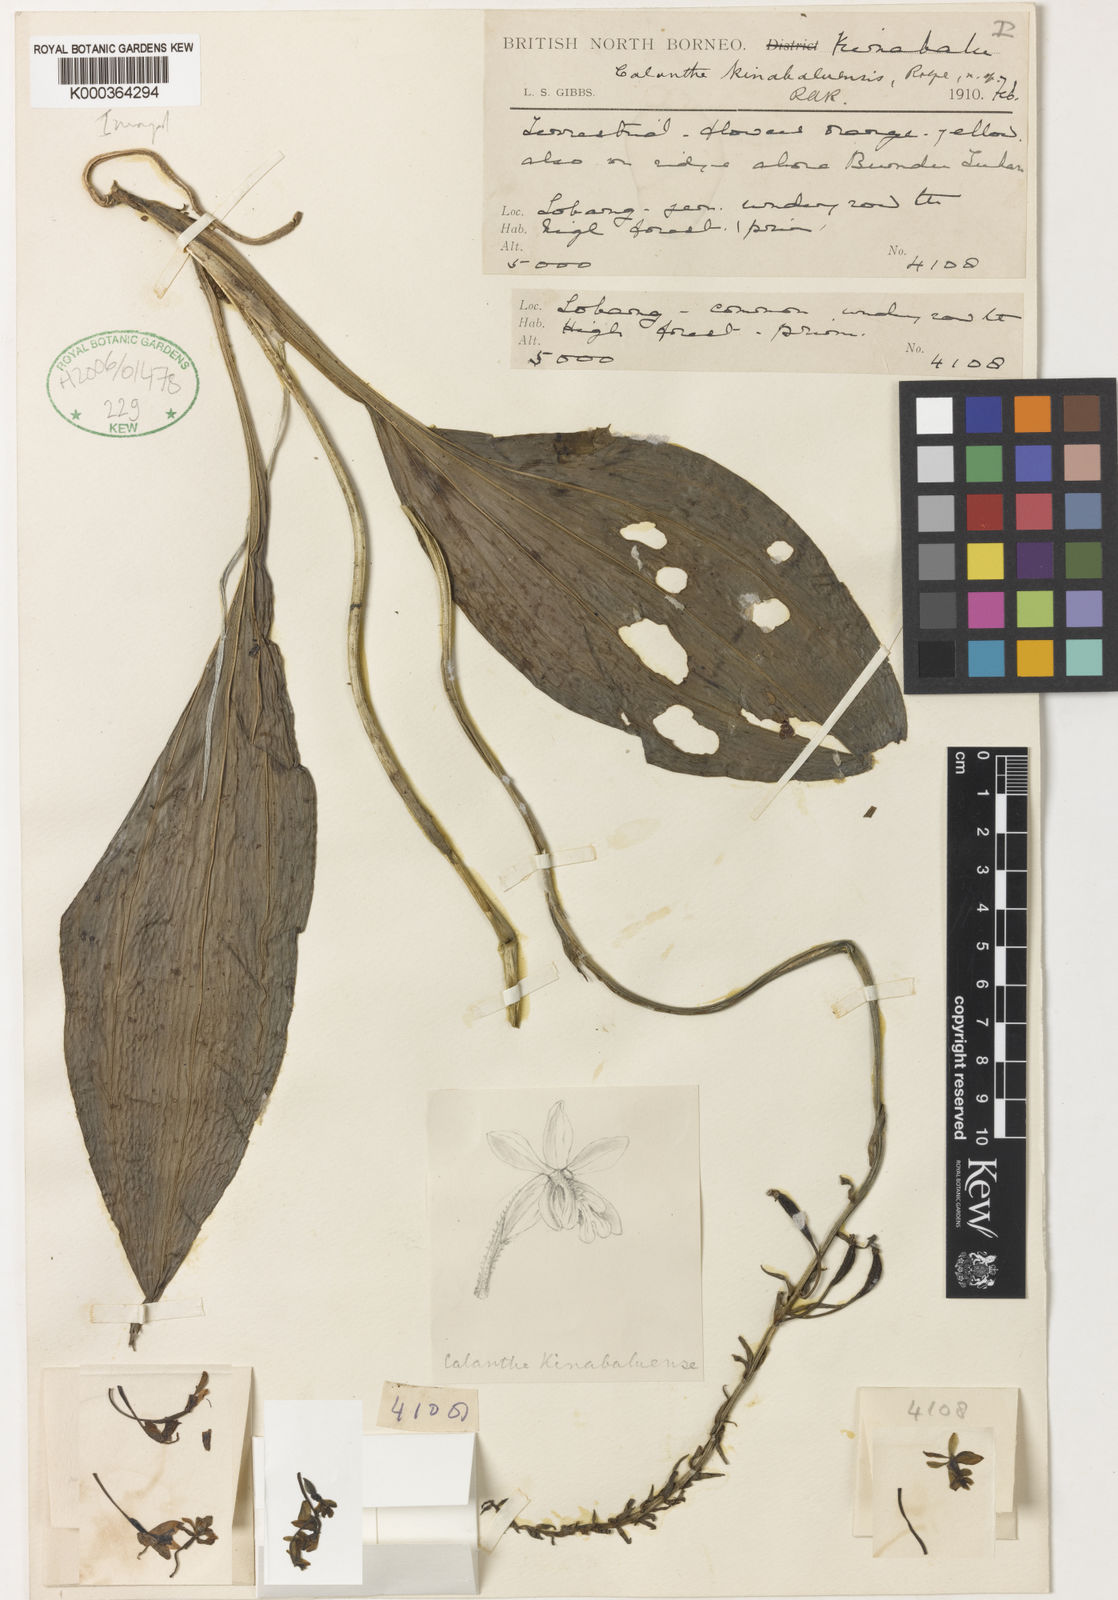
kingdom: Plantae
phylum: Tracheophyta
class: Liliopsida
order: Asparagales
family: Orchidaceae
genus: Calanthe
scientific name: Calanthe kinabaluensis
